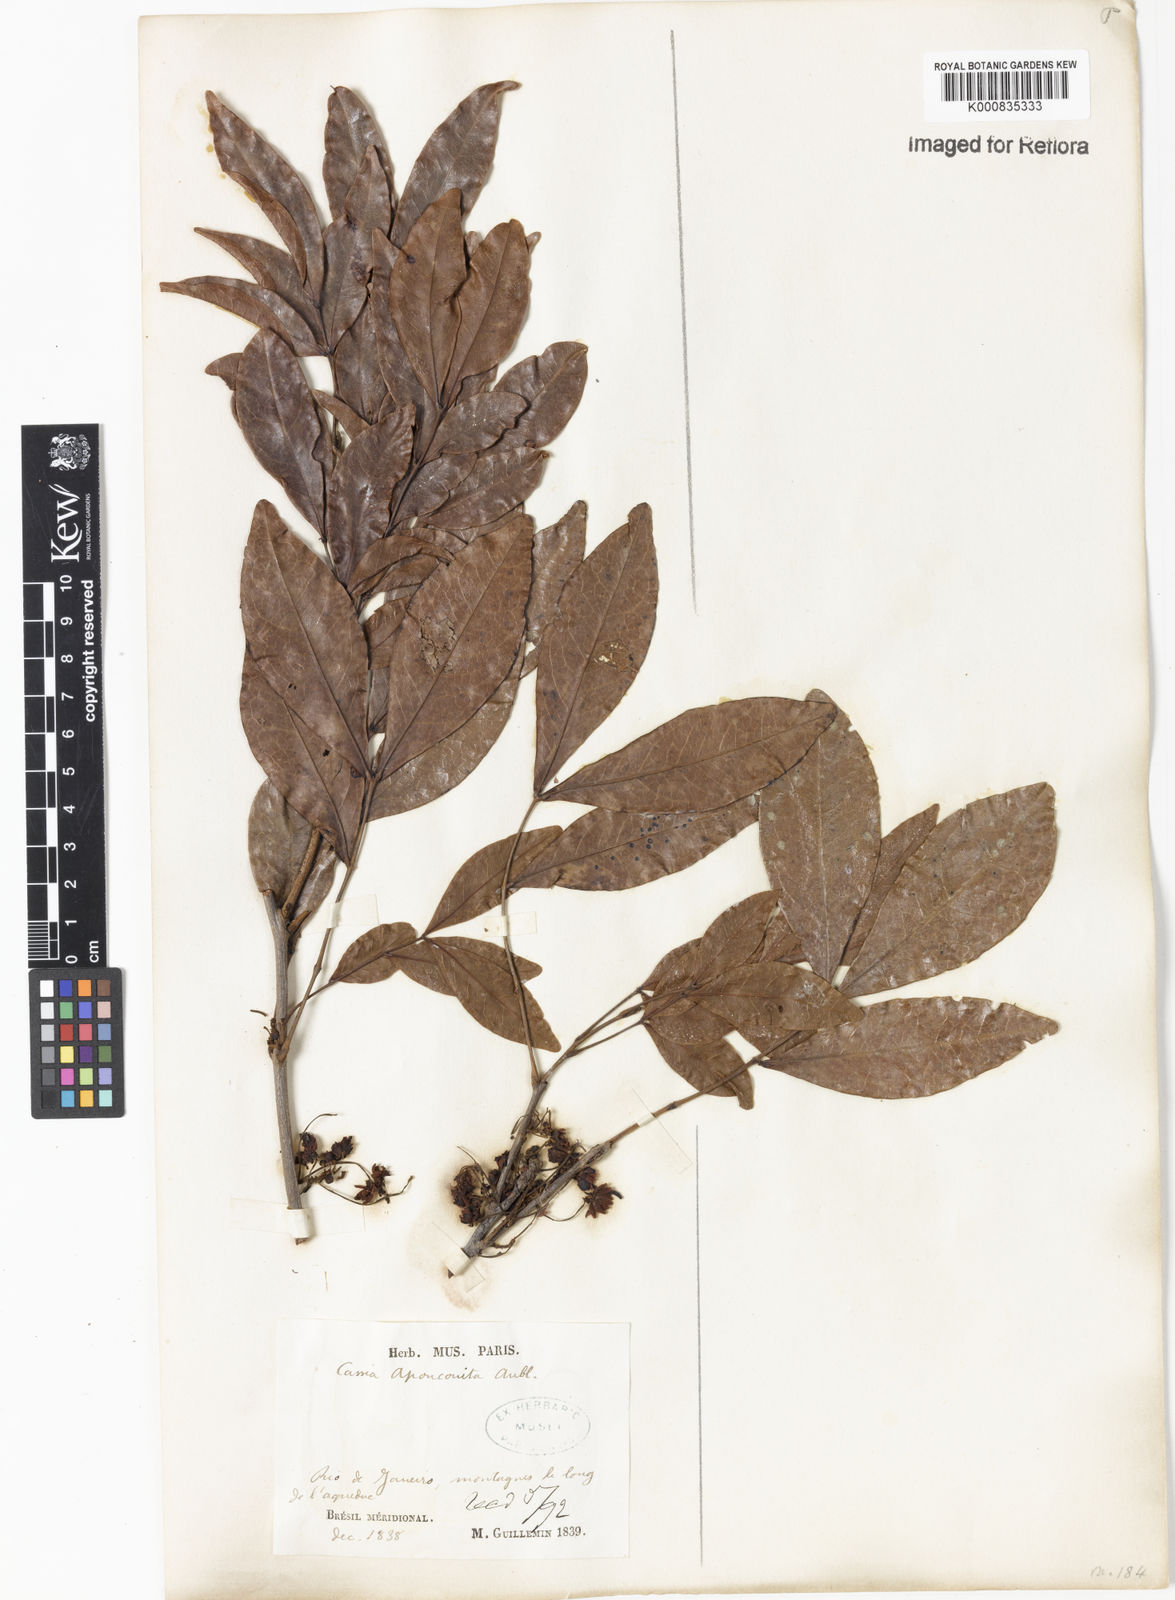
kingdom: Plantae
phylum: Tracheophyta
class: Magnoliopsida
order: Fabales
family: Fabaceae
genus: Chamaecrista
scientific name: Chamaecrista apoucouita
